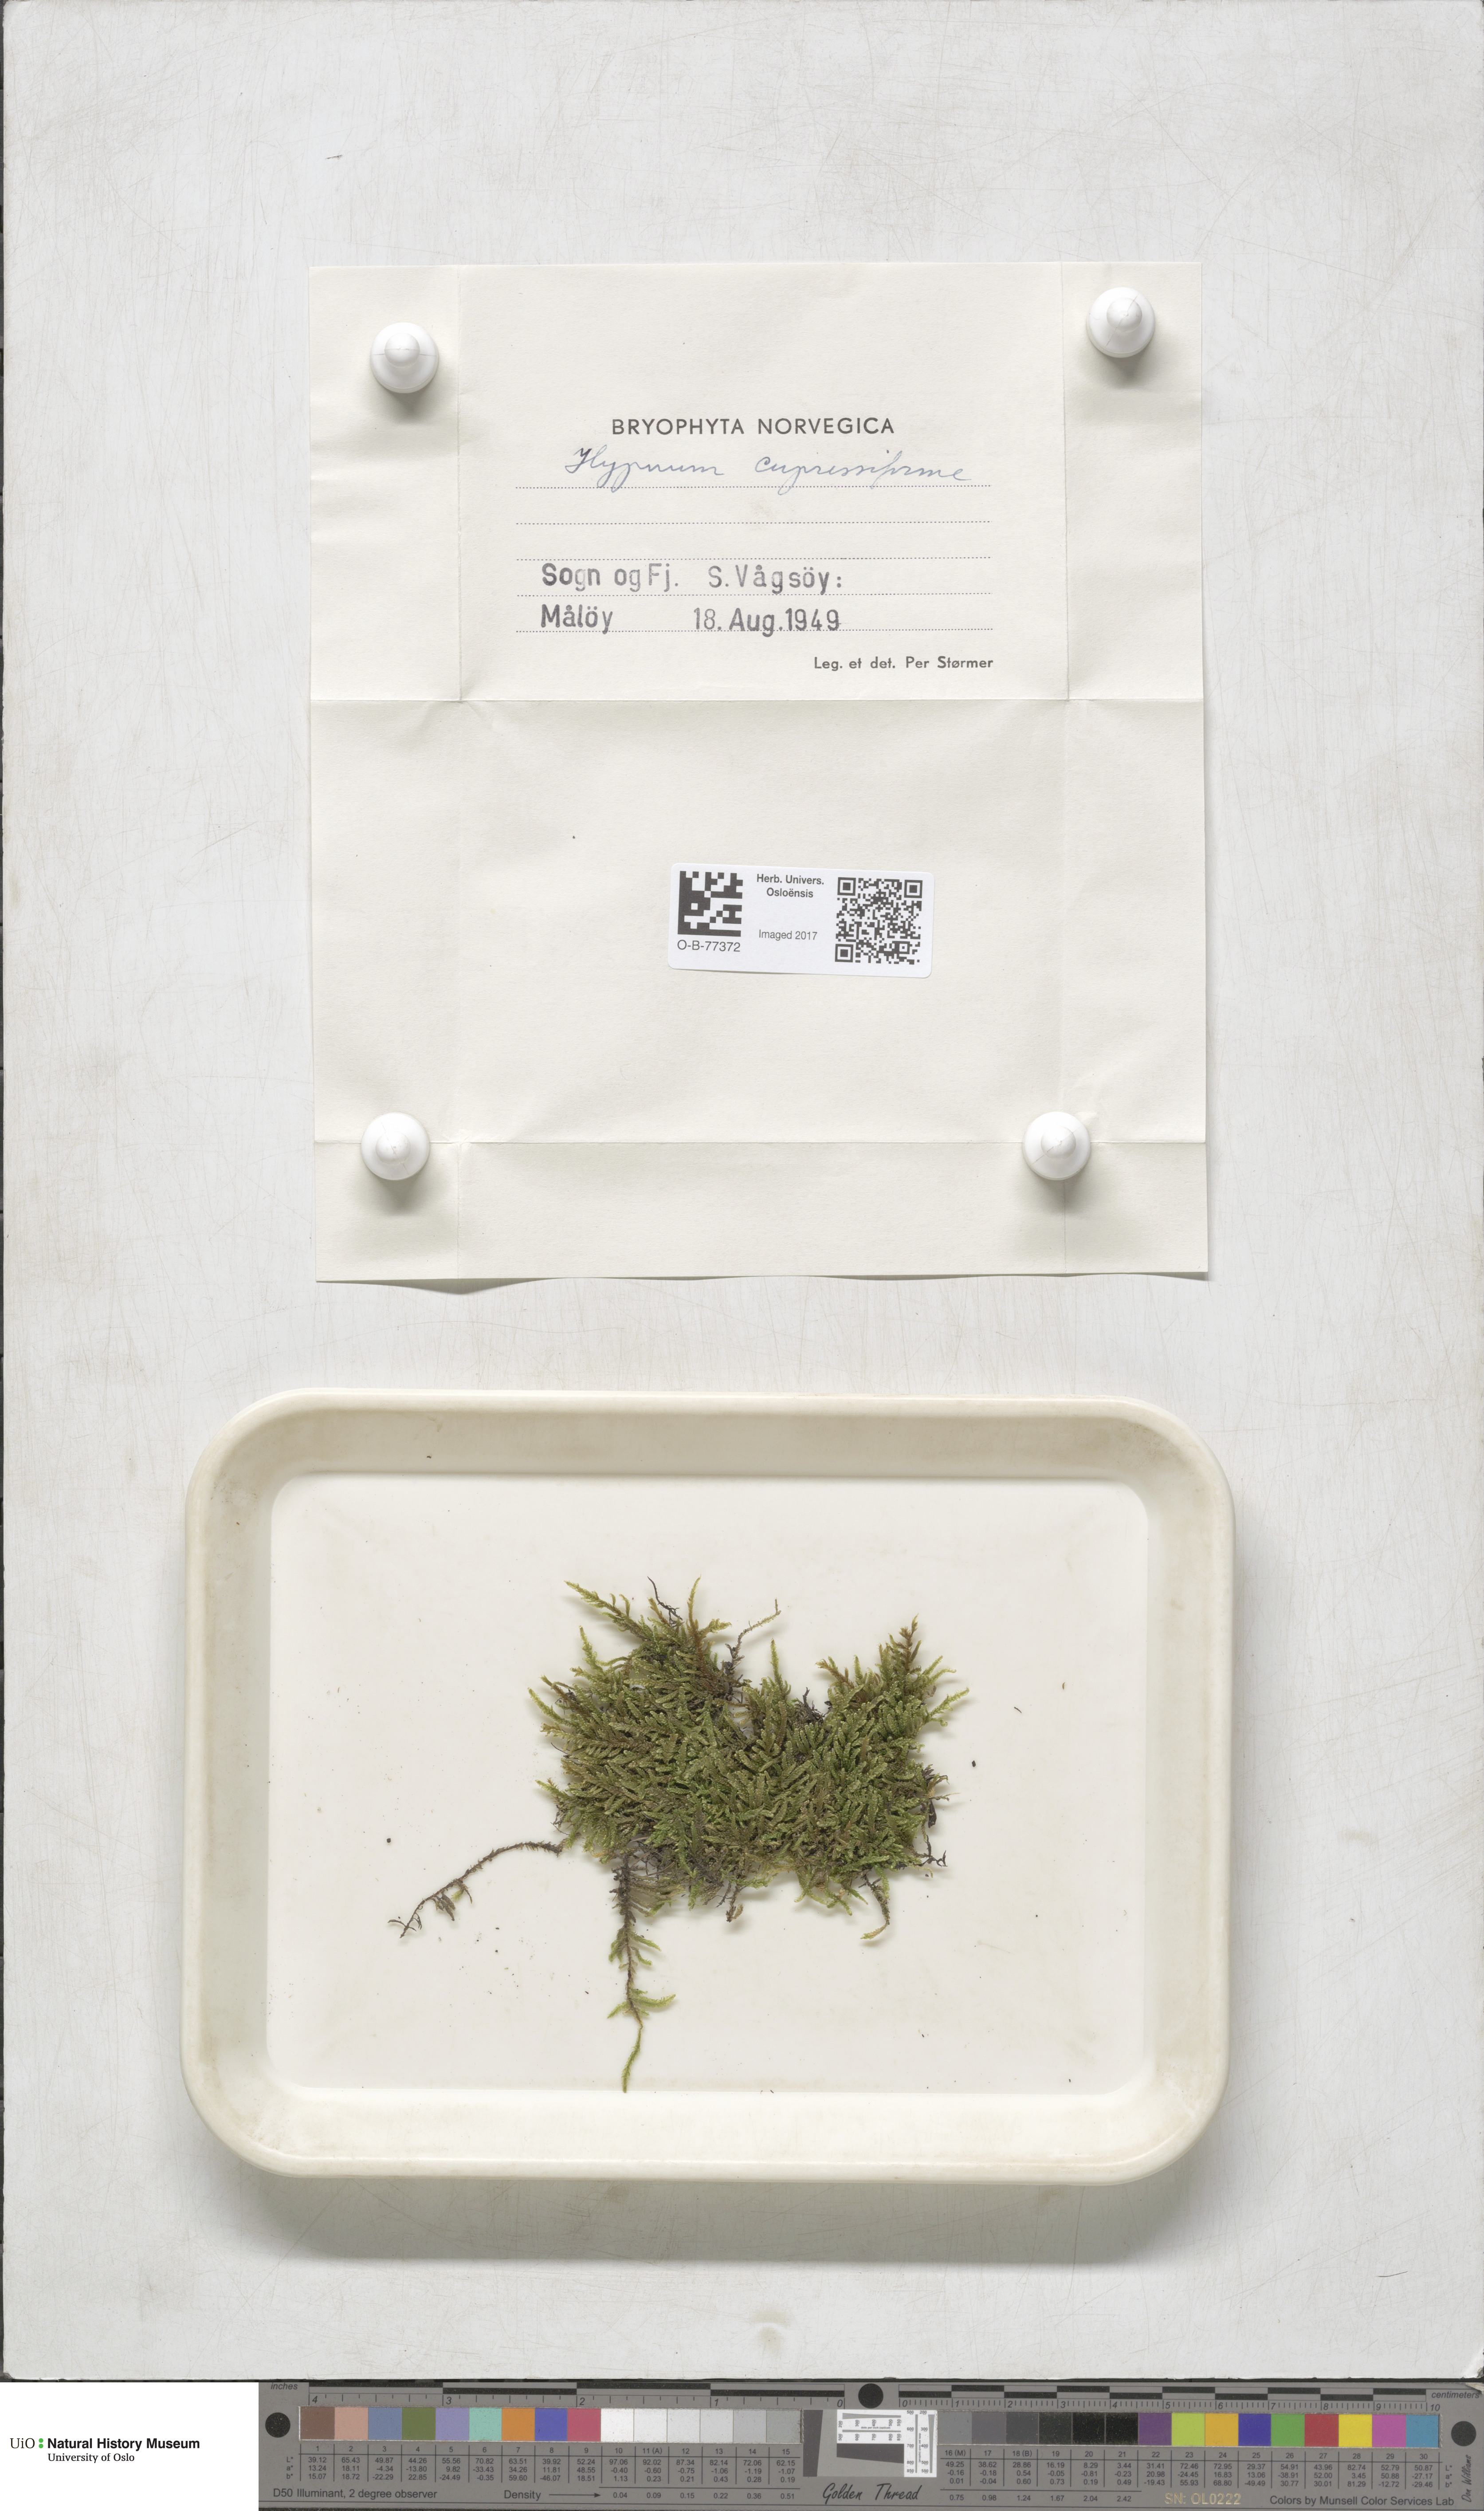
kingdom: Plantae
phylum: Bryophyta
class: Bryopsida
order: Hypnales
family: Hypnaceae
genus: Hypnum
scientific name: Hypnum cupressiforme
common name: Cypress-leaved plait-moss
